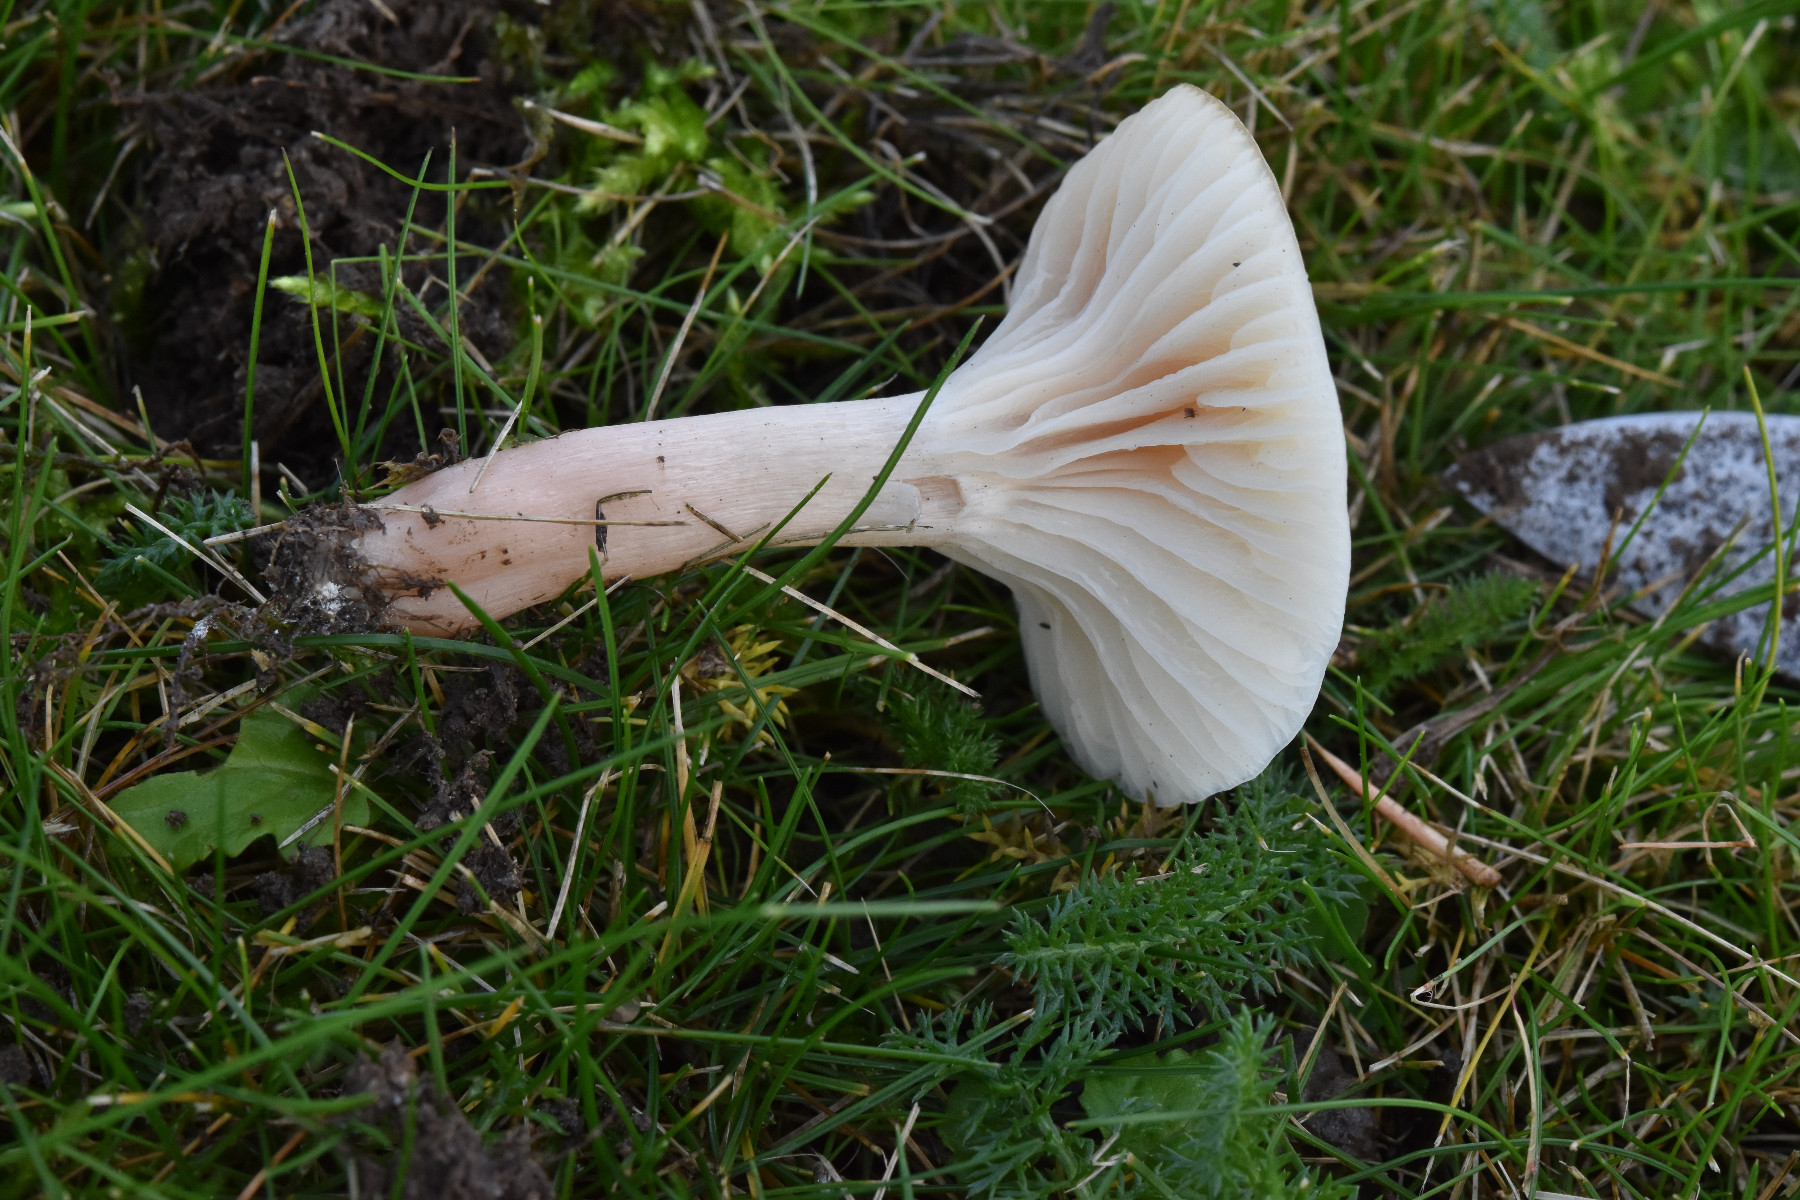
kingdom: Fungi
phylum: Basidiomycota
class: Agaricomycetes
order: Agaricales
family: Hygrophoraceae
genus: Cuphophyllus
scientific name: Cuphophyllus virgineus
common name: snehvid vokshat
